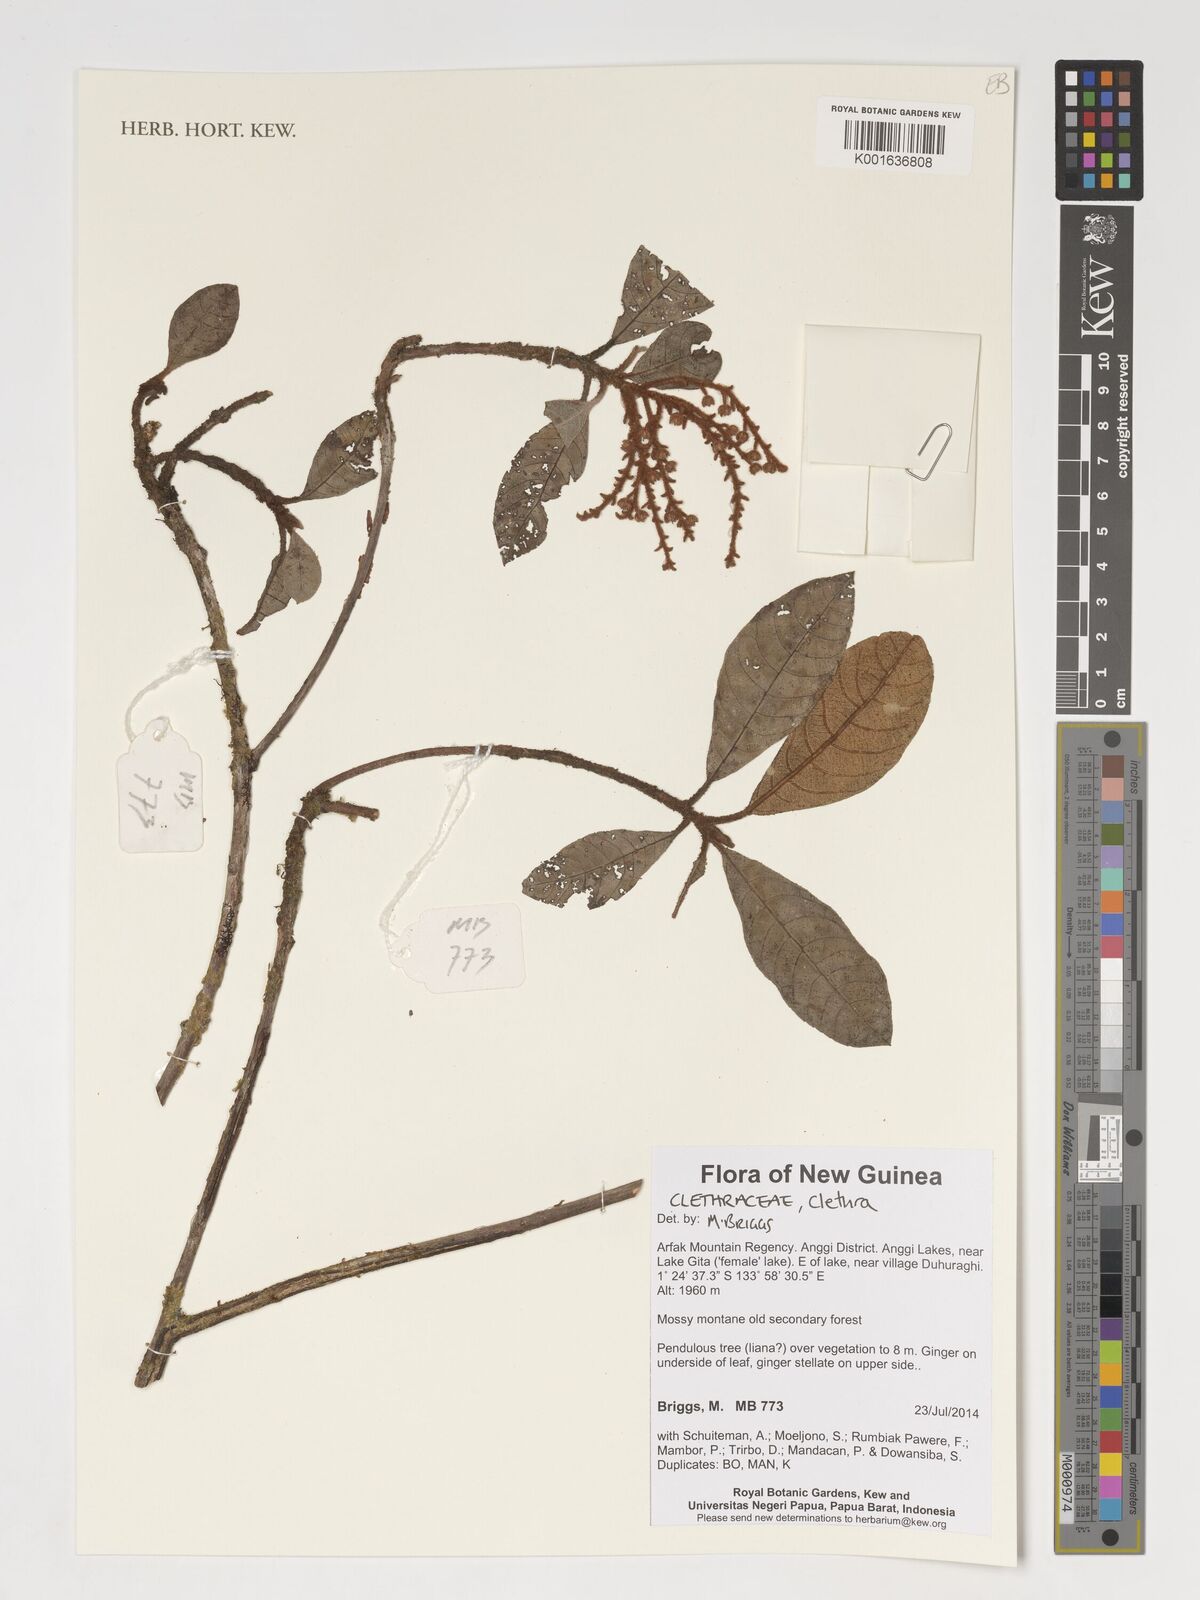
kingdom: Plantae
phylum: Tracheophyta
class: Magnoliopsida
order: Ericales
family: Clethraceae
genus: Clethra
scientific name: Clethra
